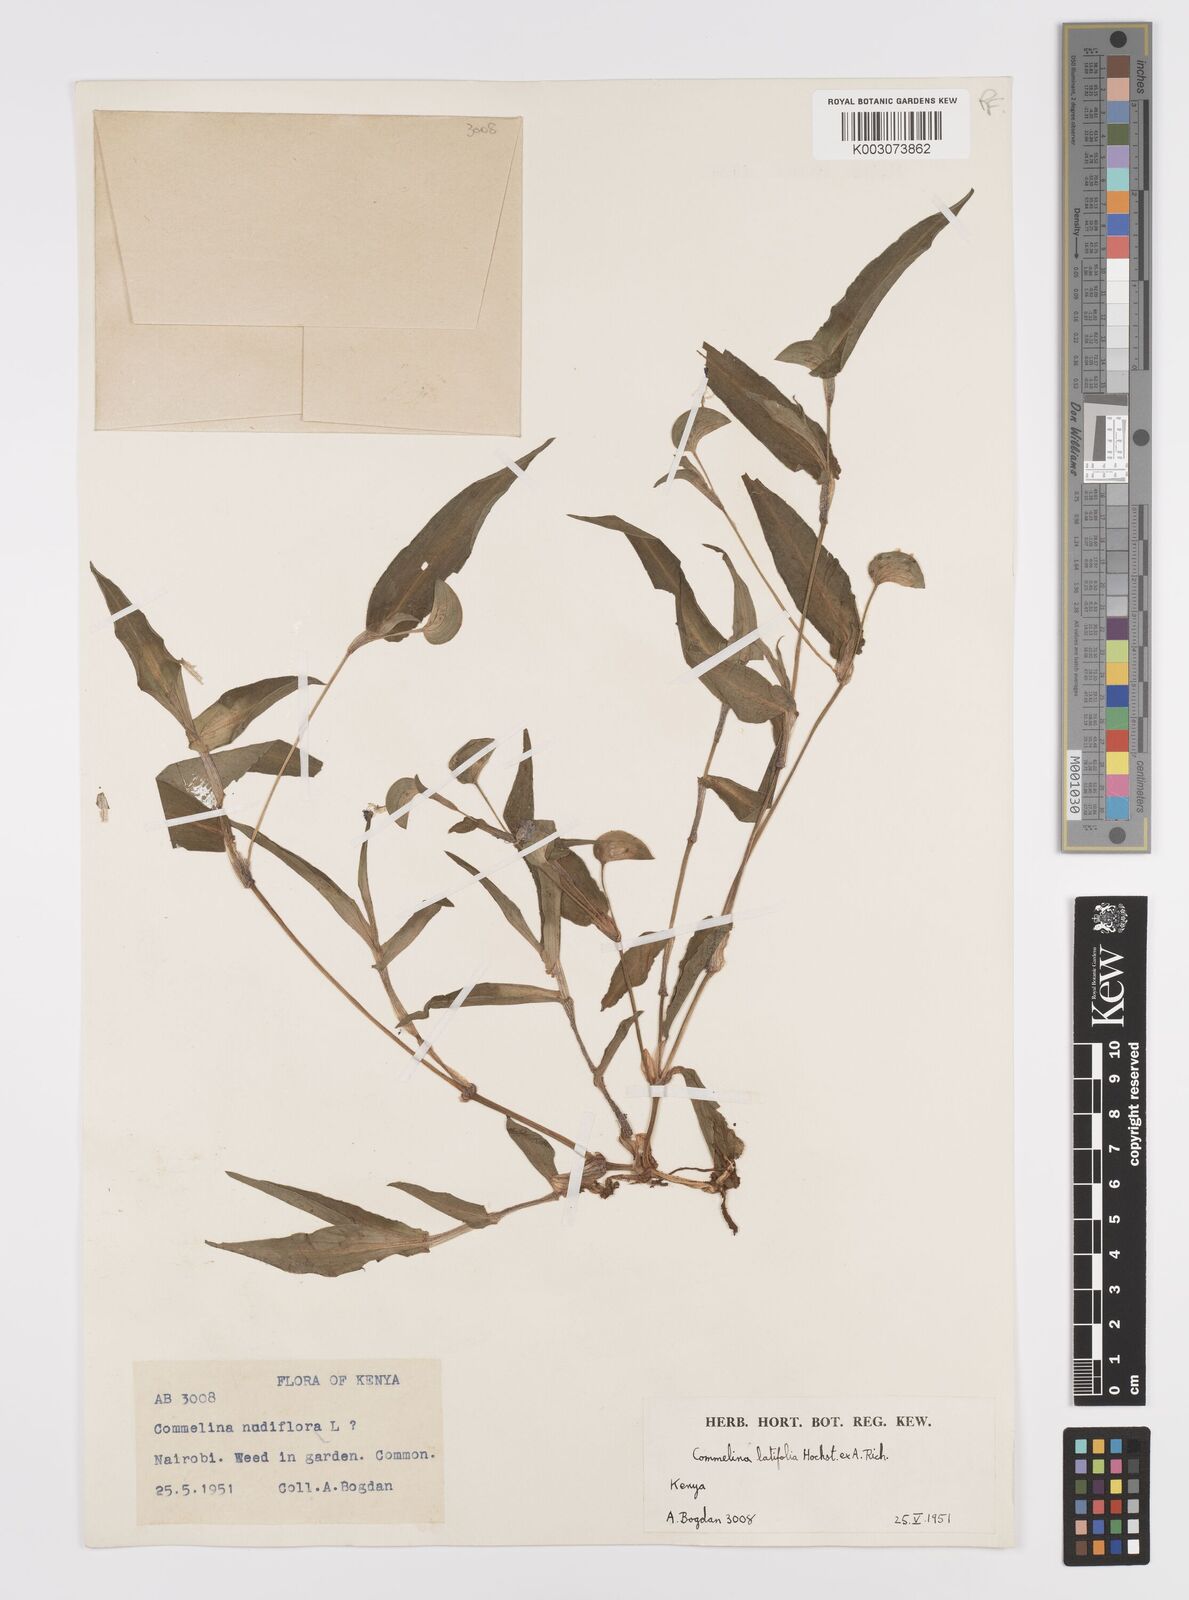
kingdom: Plantae
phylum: Tracheophyta
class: Liliopsida
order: Commelinales
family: Commelinaceae
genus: Commelina
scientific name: Commelina latifolia
